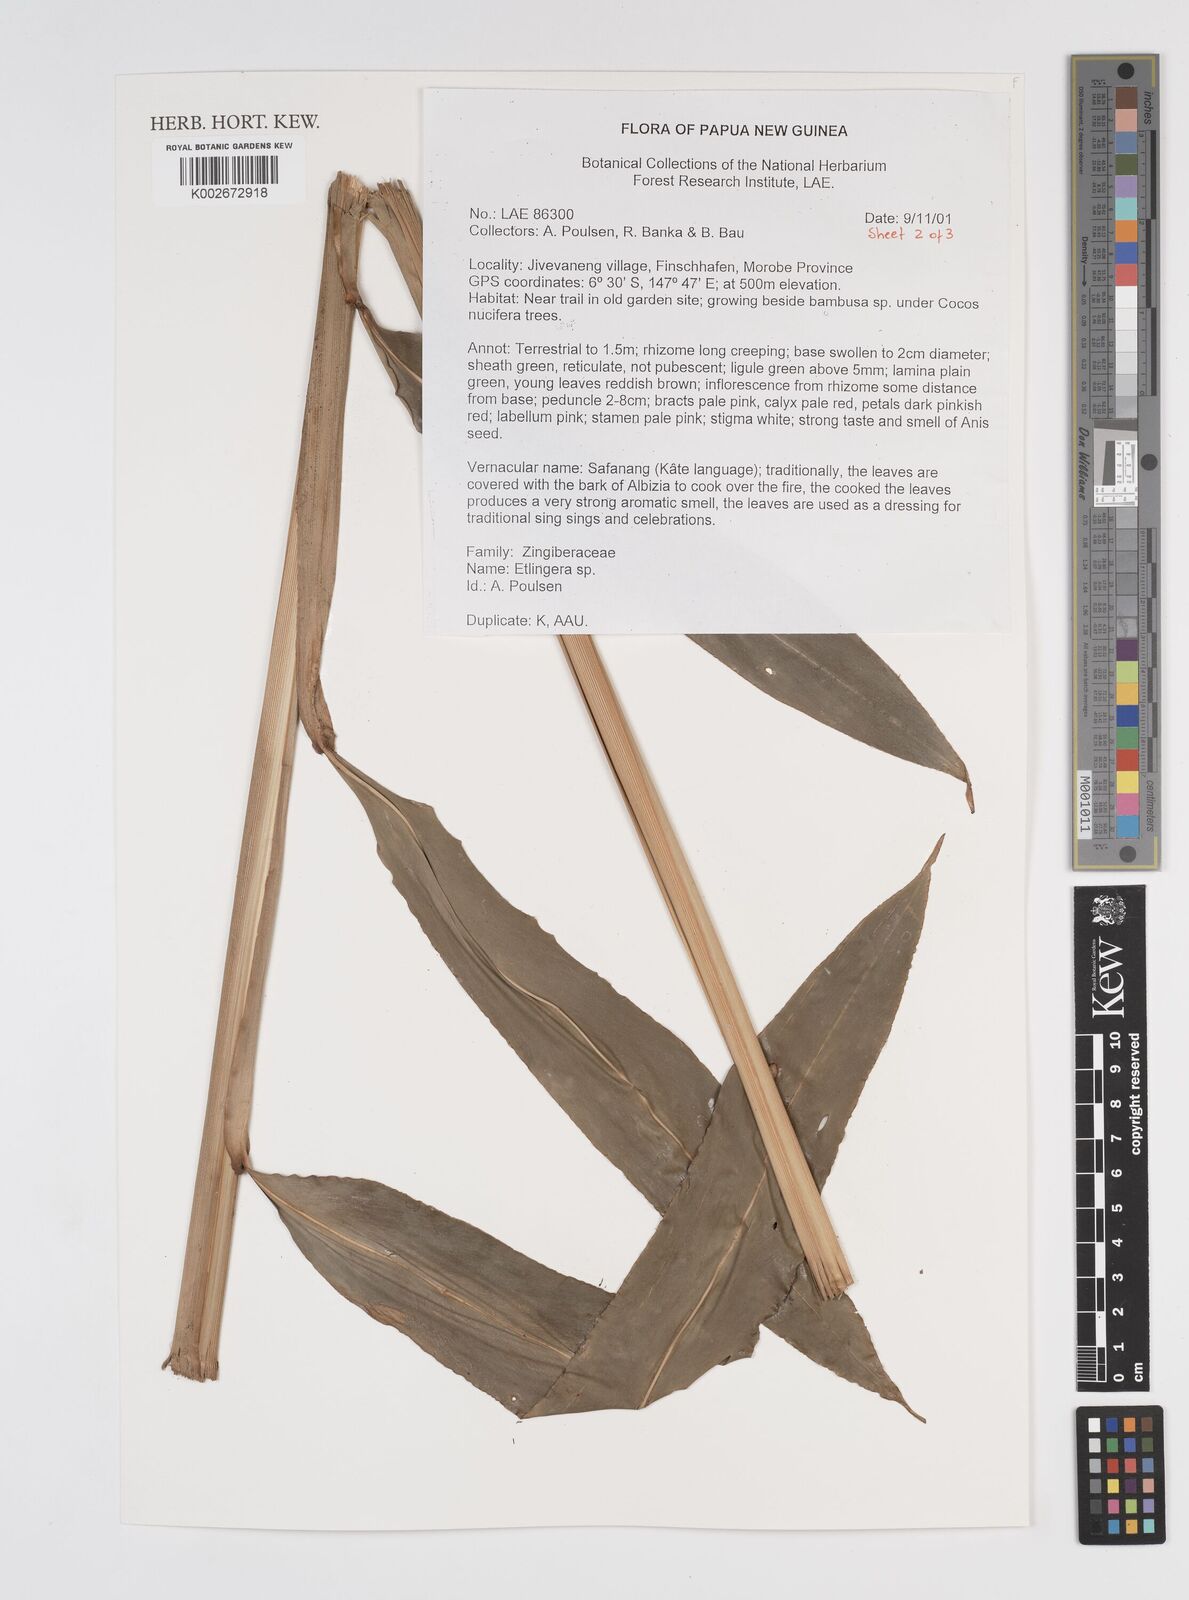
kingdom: Plantae
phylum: Tracheophyta
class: Liliopsida
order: Zingiberales
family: Zingiberaceae
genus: Etlingera
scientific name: Etlingera
